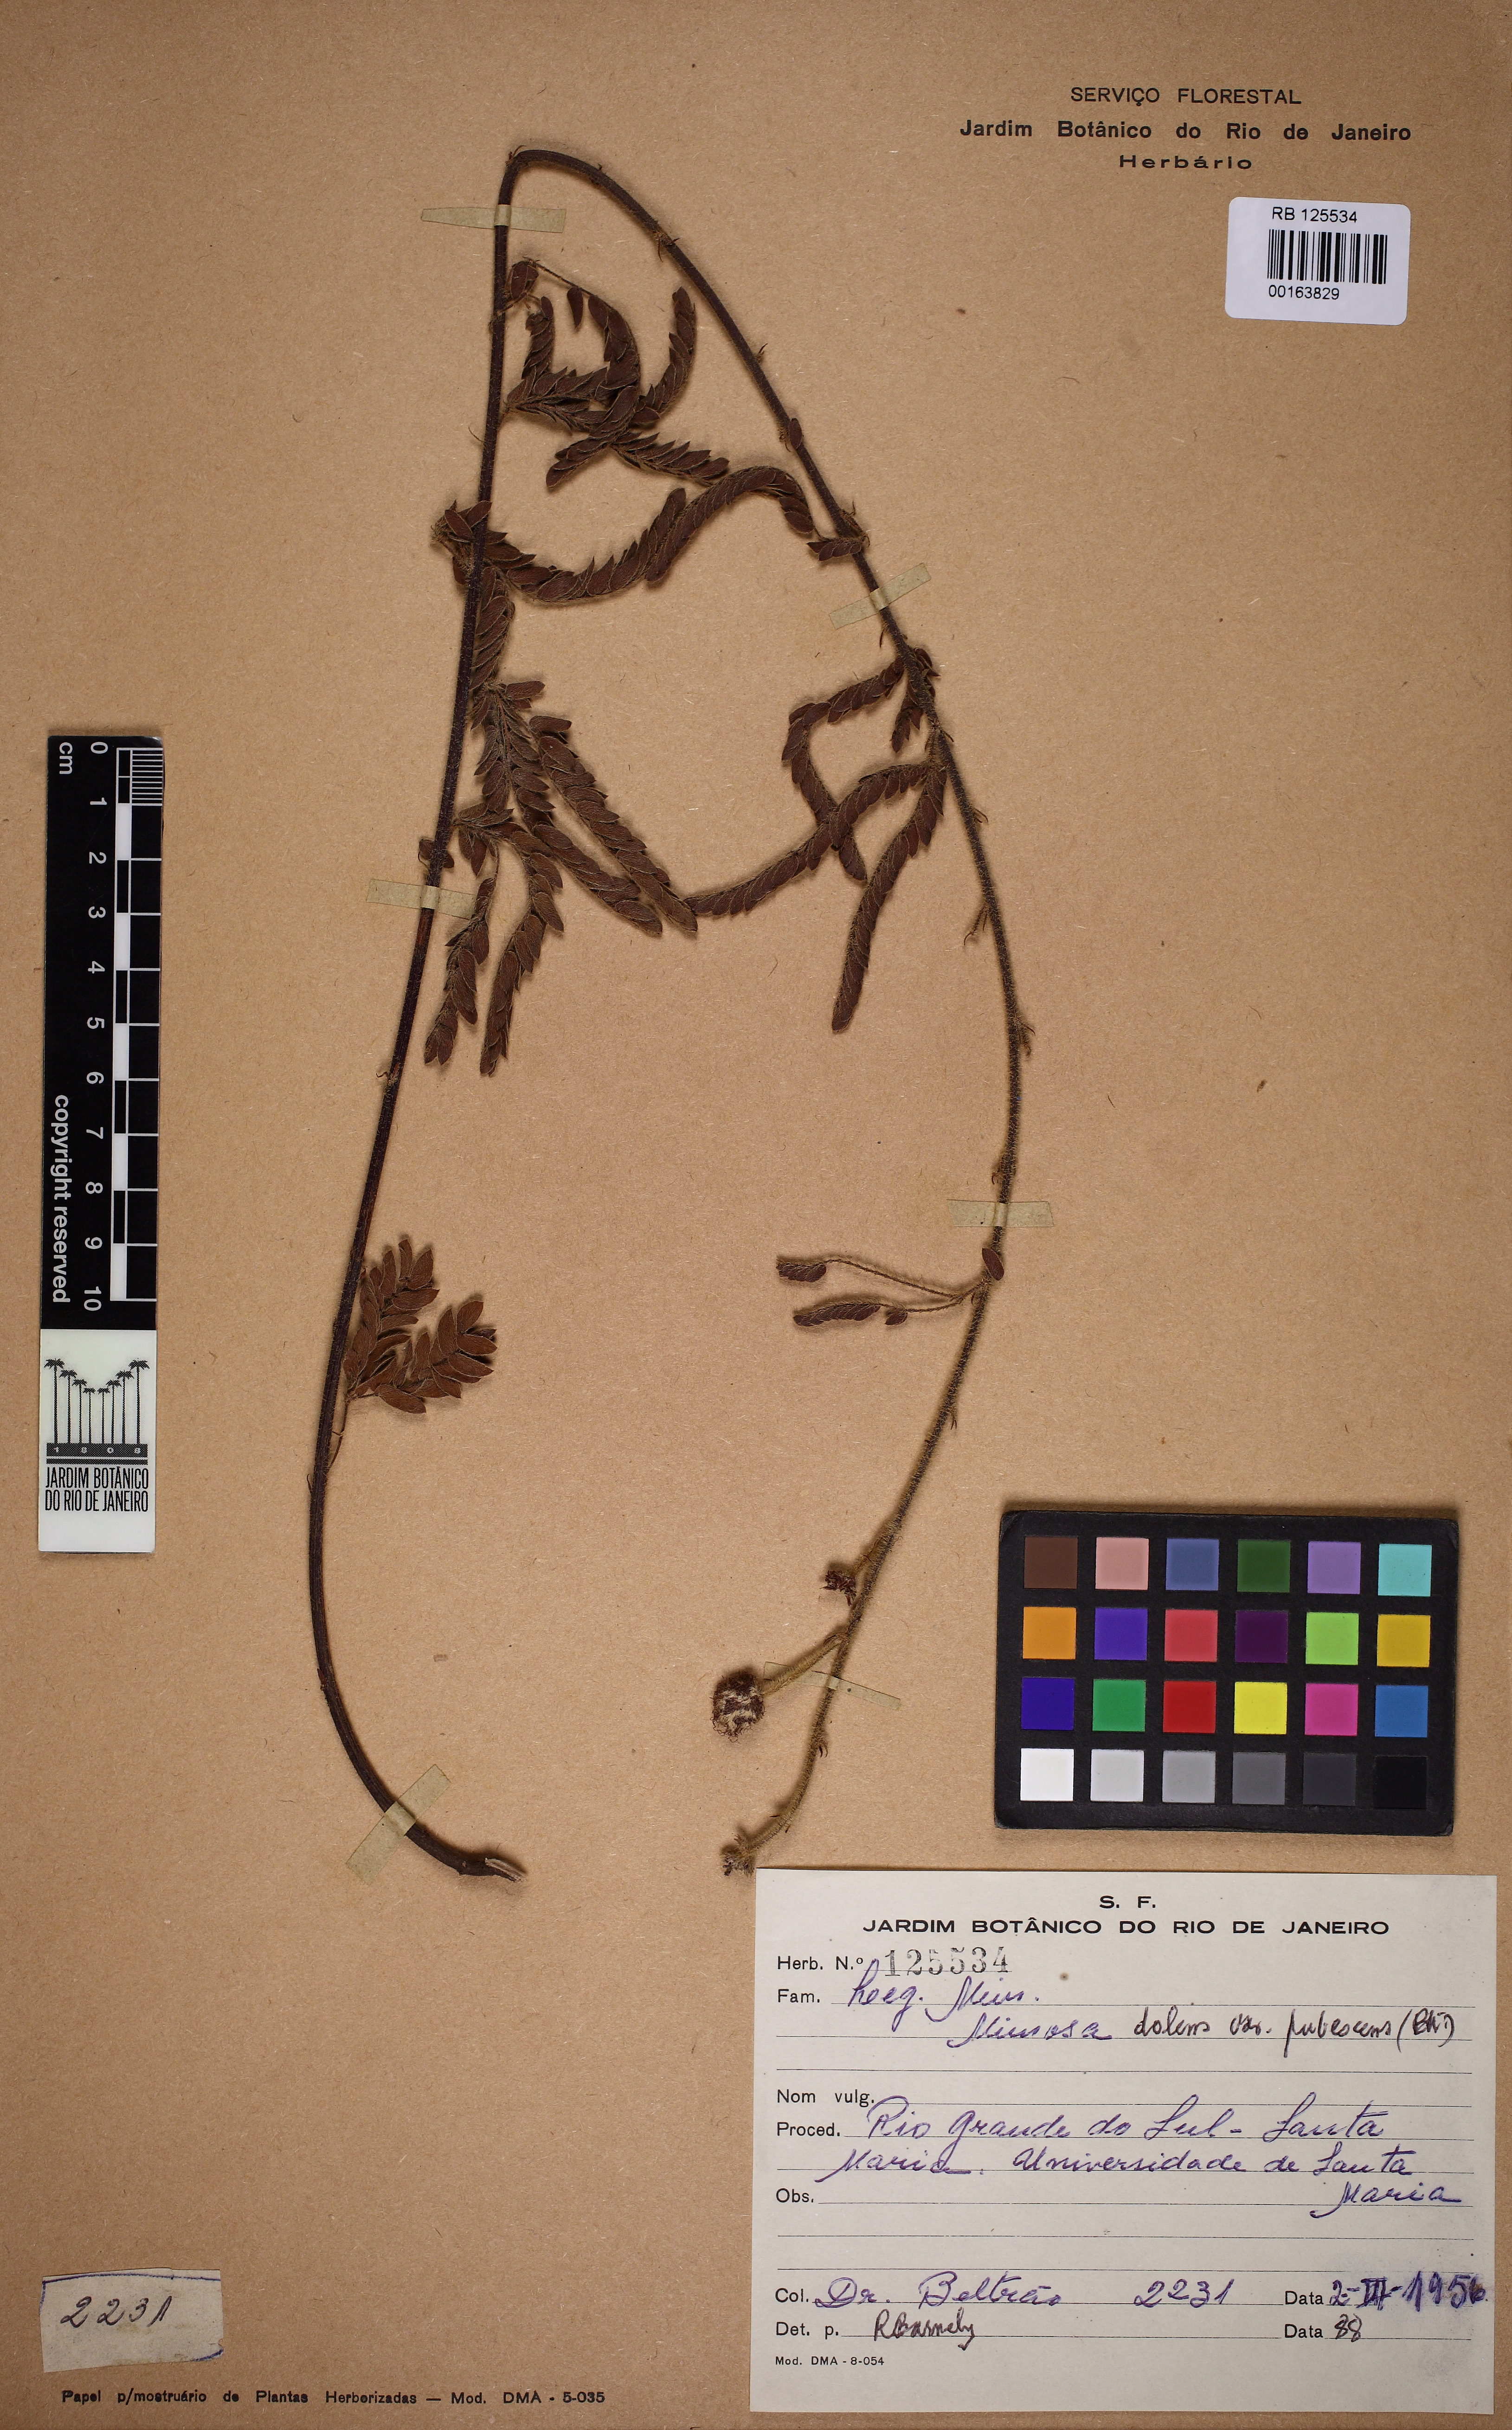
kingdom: Plantae
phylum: Tracheophyta
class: Magnoliopsida
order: Fabales
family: Fabaceae
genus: Mimosa
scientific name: Mimosa dolens
